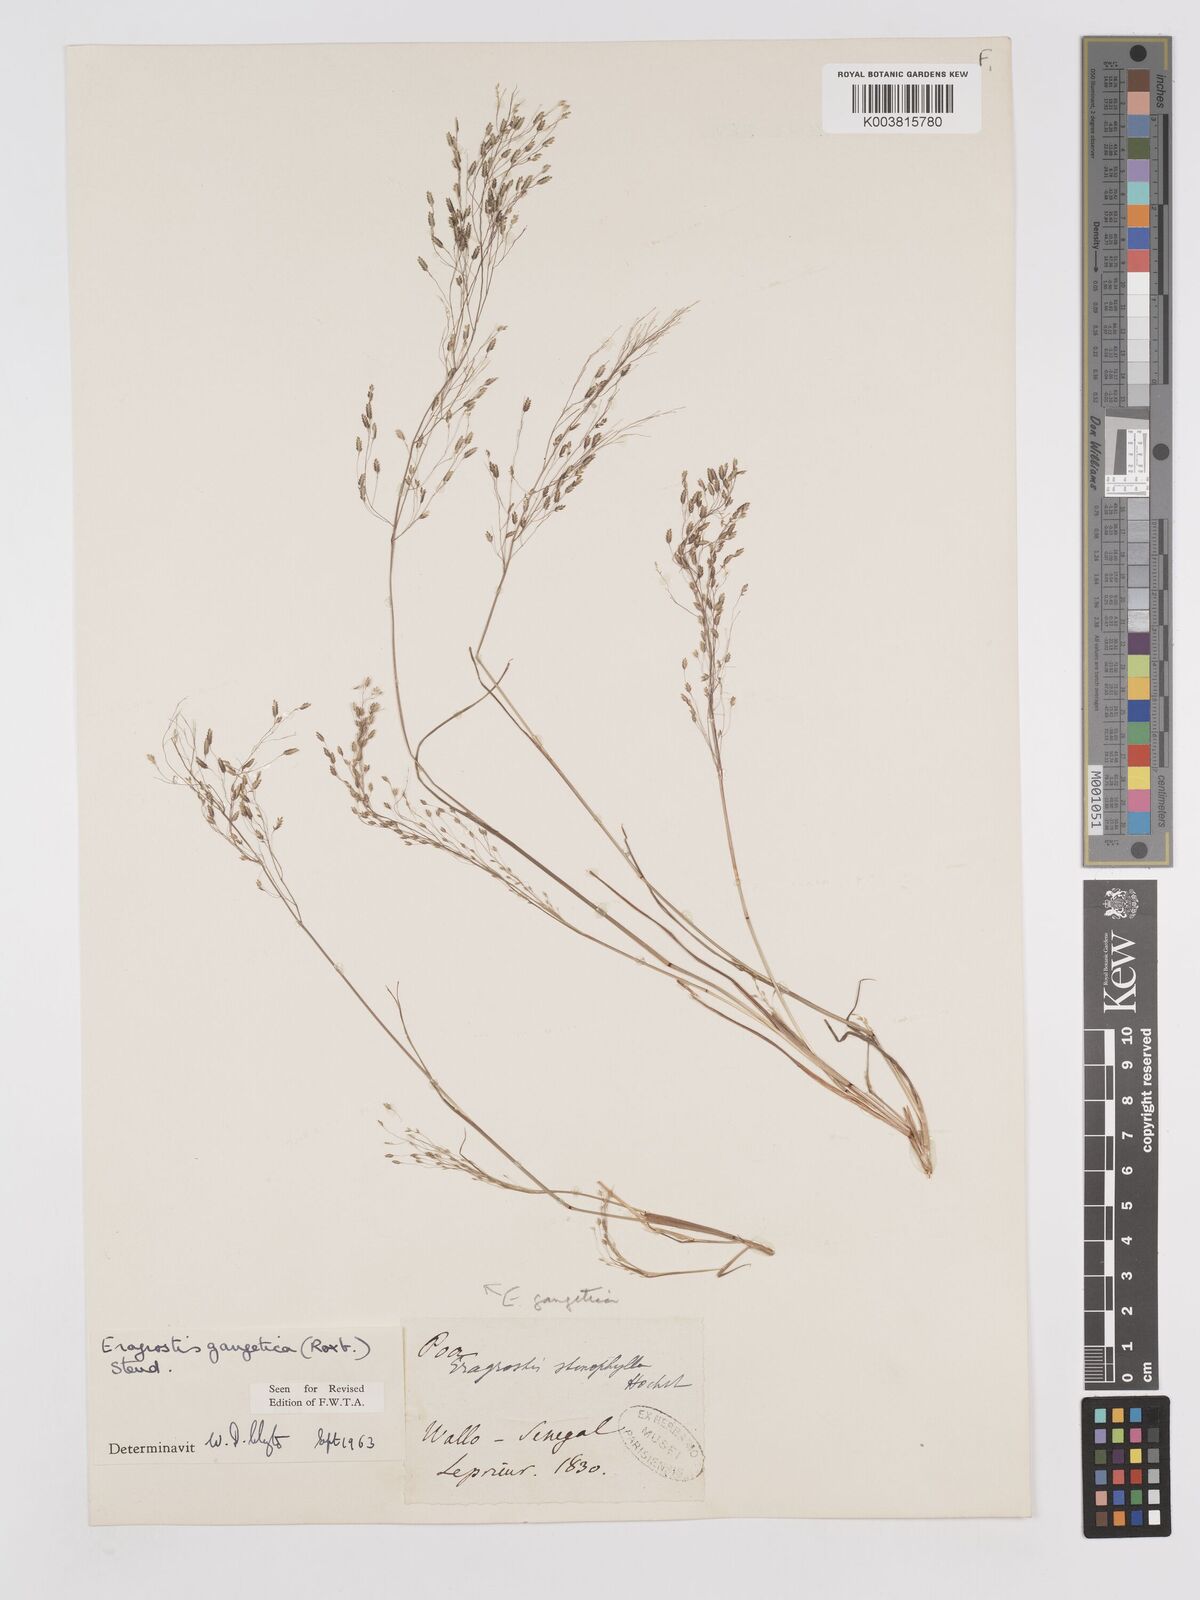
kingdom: Plantae
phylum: Tracheophyta
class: Liliopsida
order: Poales
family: Poaceae
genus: Eragrostis
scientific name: Eragrostis gangetica
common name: Slimflower lovegrass
